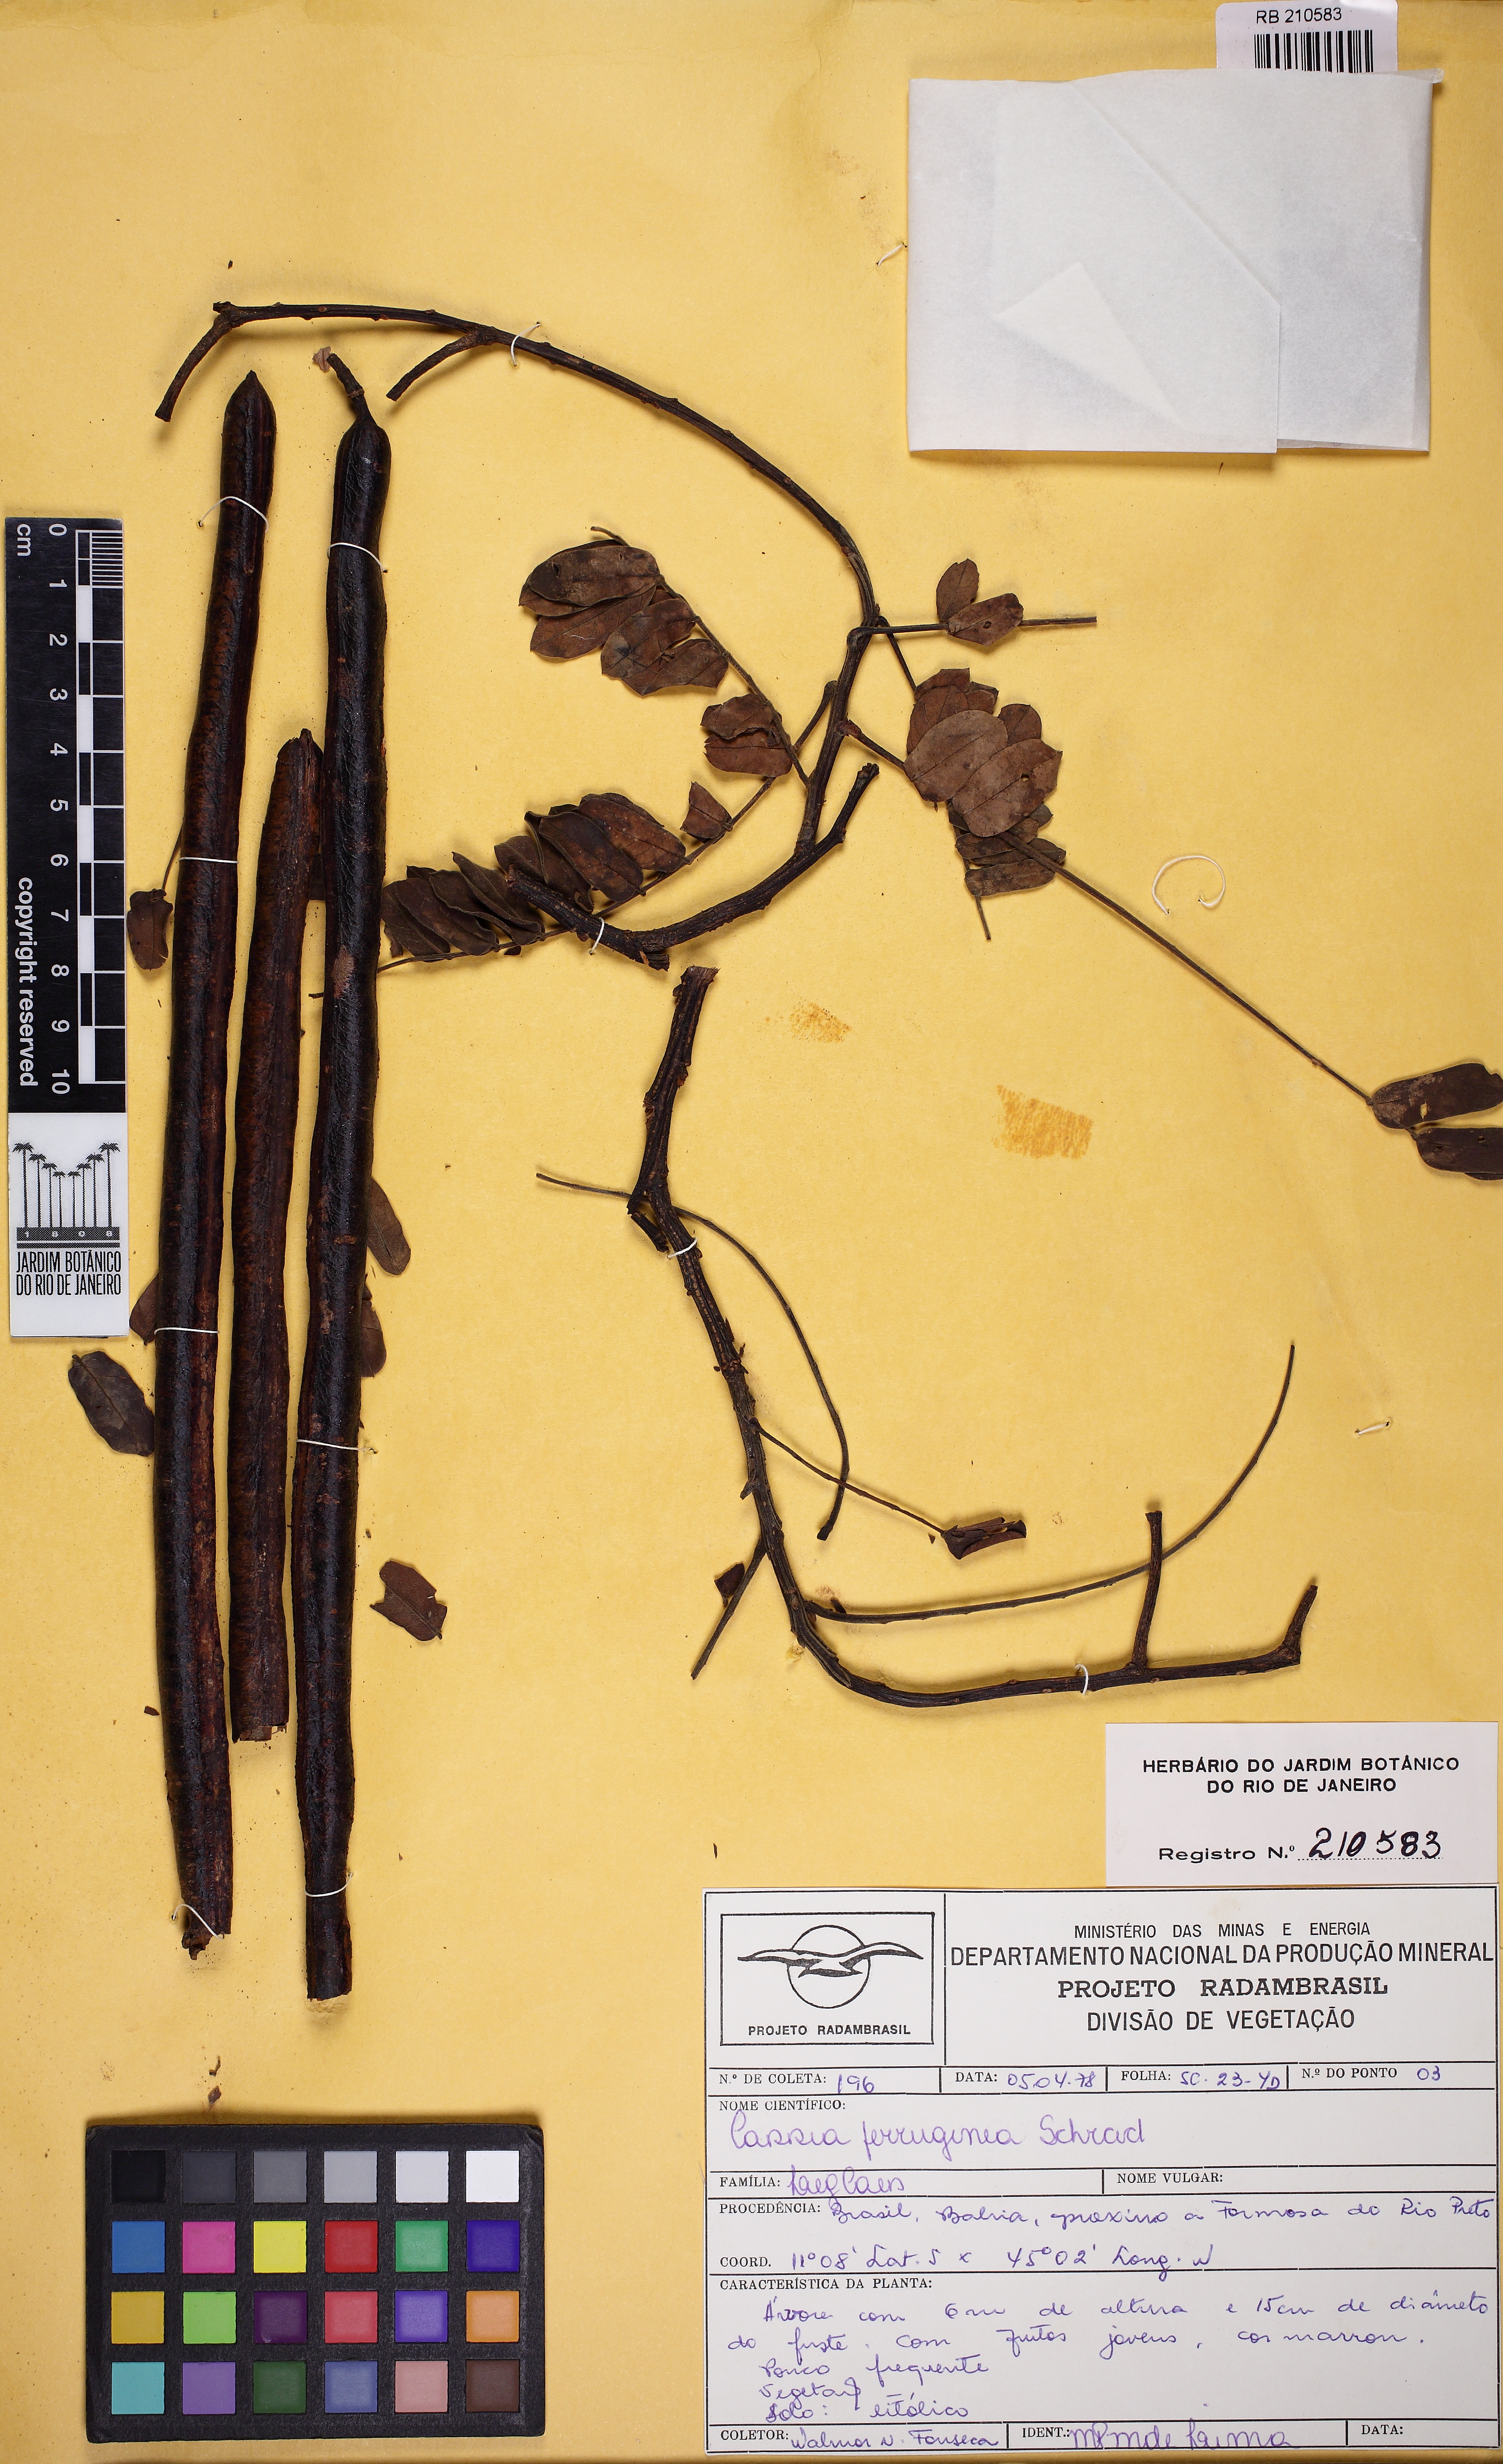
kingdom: Plantae
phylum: Tracheophyta
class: Magnoliopsida
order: Fabales
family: Fabaceae
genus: Cassia
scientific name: Cassia ferruginea
